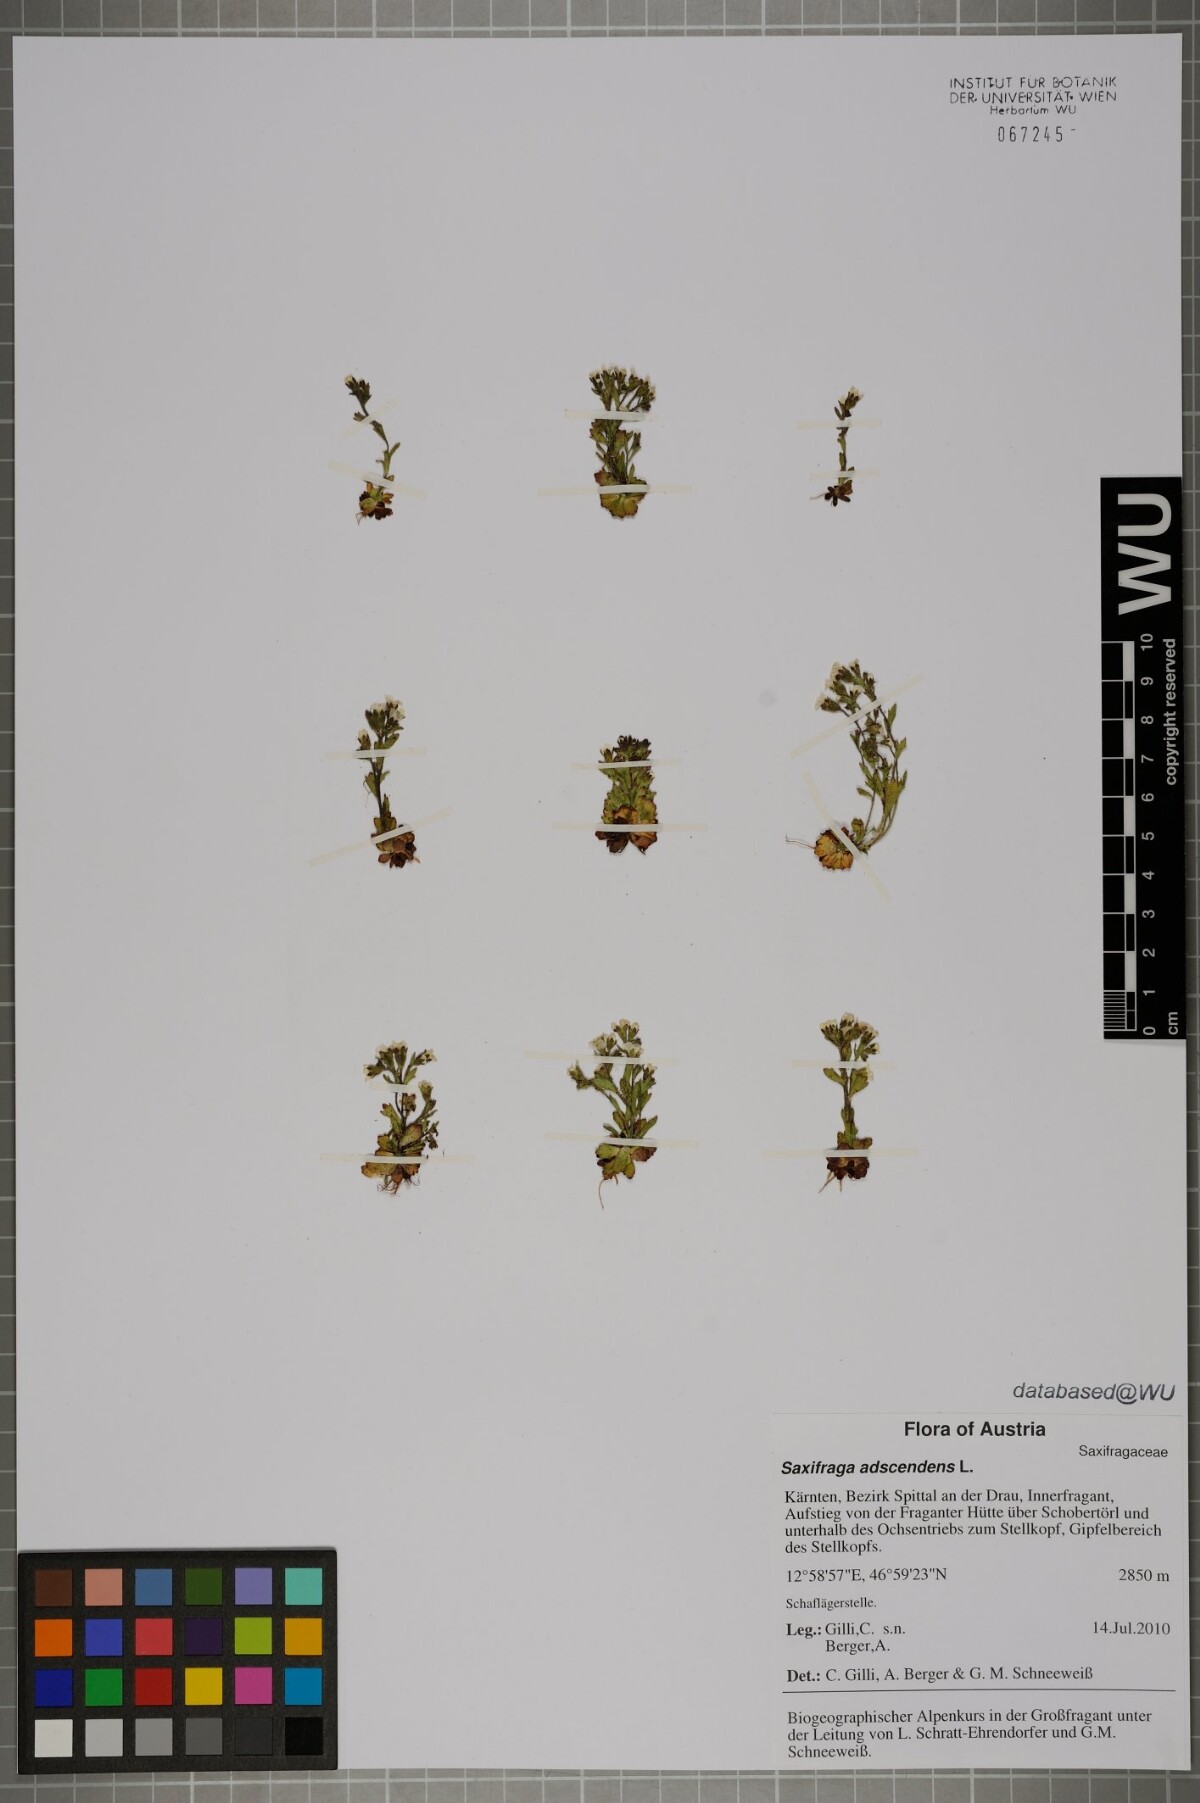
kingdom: Plantae
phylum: Tracheophyta
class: Magnoliopsida
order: Saxifragales
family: Saxifragaceae
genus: Saxifraga
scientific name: Saxifraga adscendens
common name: Ascending saxifrage
